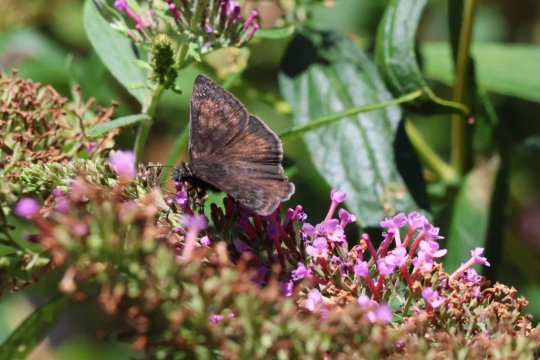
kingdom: Animalia
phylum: Arthropoda
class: Insecta
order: Lepidoptera
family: Hesperiidae
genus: Erynnis
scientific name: Erynnis tristis
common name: Mournful Duskywing
